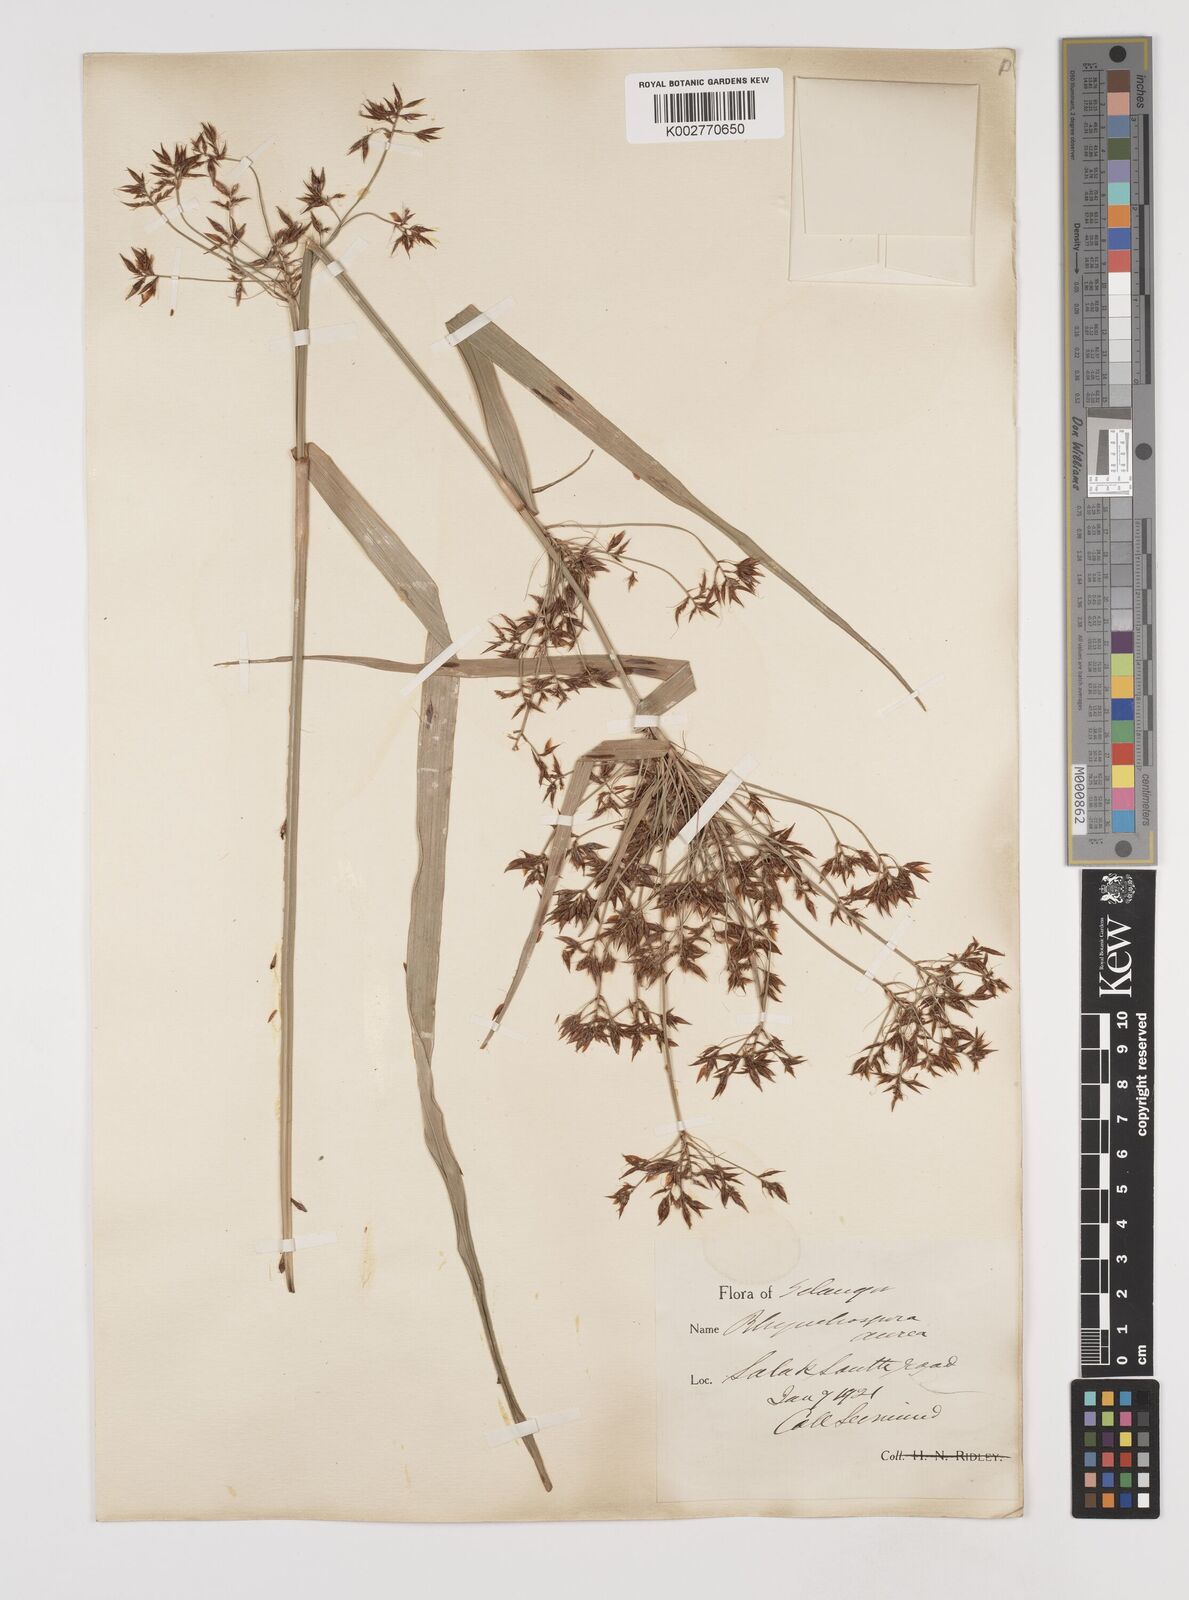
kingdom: Plantae
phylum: Tracheophyta
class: Liliopsida
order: Poales
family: Cyperaceae
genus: Rhynchospora
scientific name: Rhynchospora corymbosa
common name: Golden beak sedge
